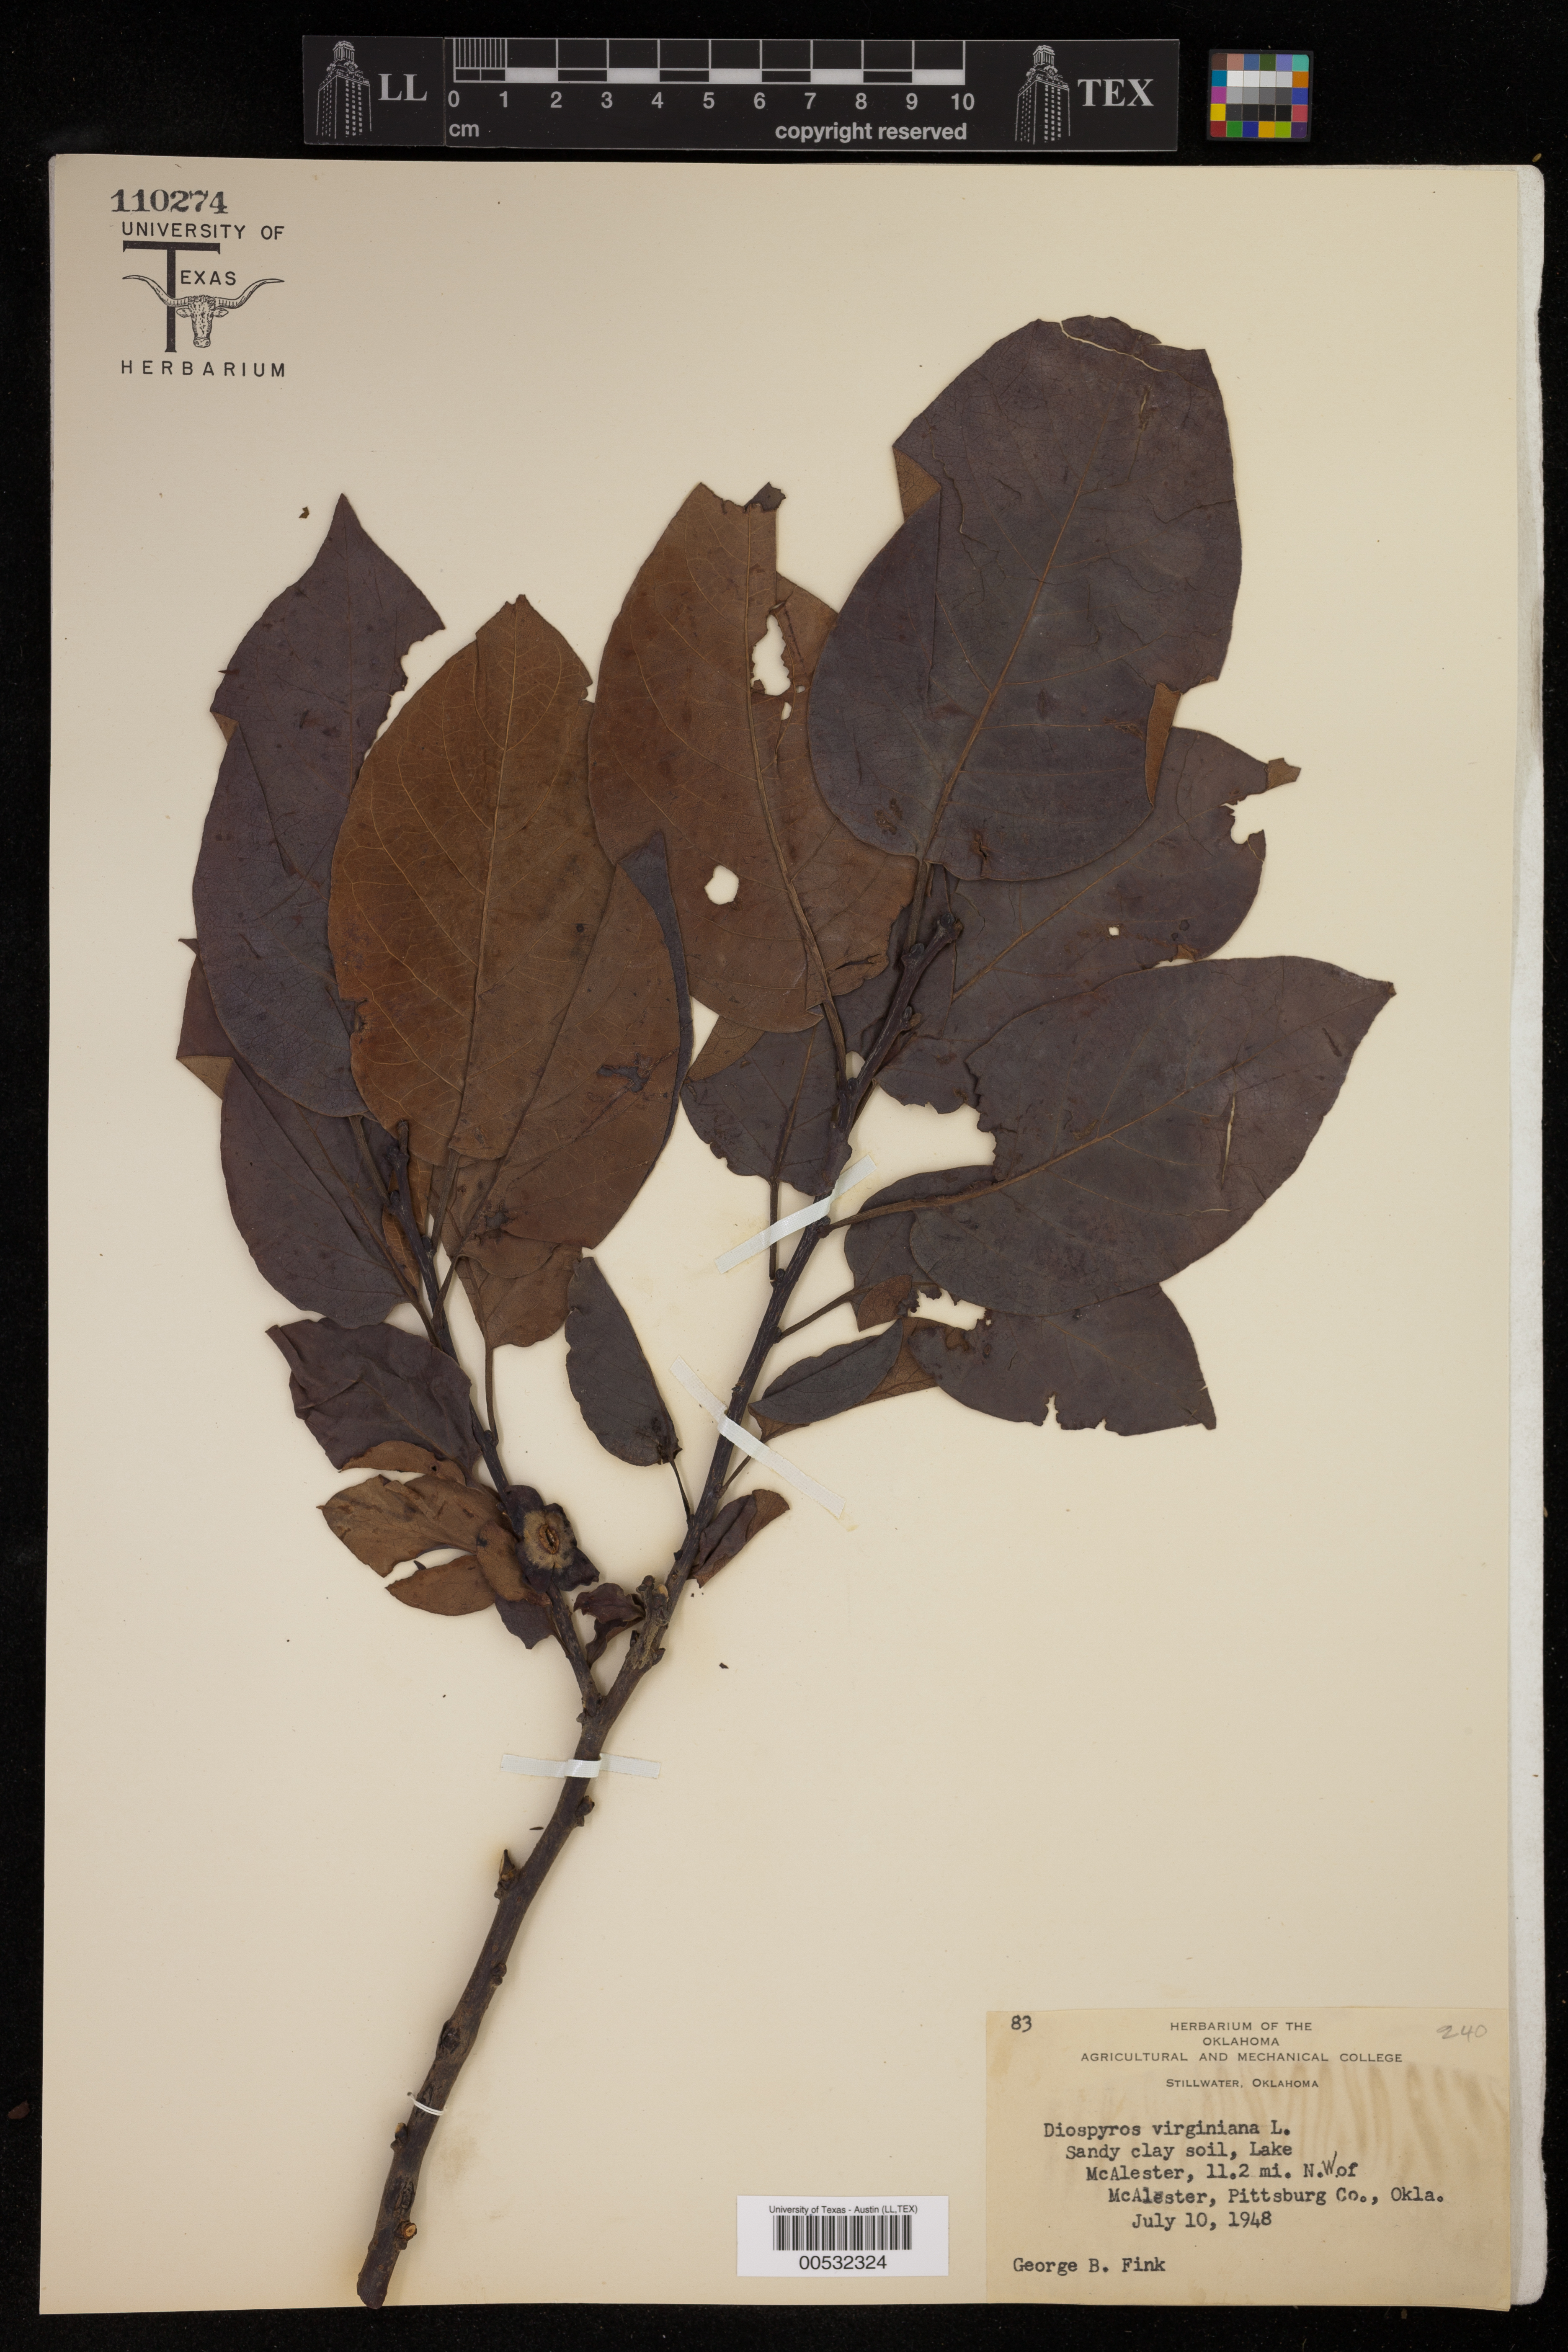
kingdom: Plantae
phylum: Tracheophyta
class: Magnoliopsida
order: Ericales
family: Ebenaceae
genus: Diospyros
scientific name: Diospyros virginiana
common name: Persimmon
